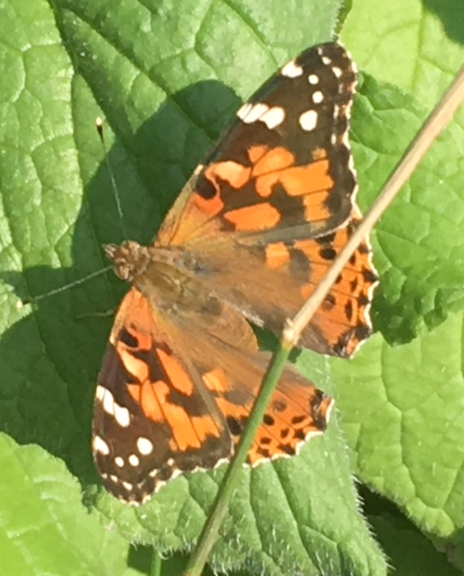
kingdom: Animalia
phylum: Arthropoda
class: Insecta
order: Lepidoptera
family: Nymphalidae
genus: Vanessa
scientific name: Vanessa cardui
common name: Painted Lady
